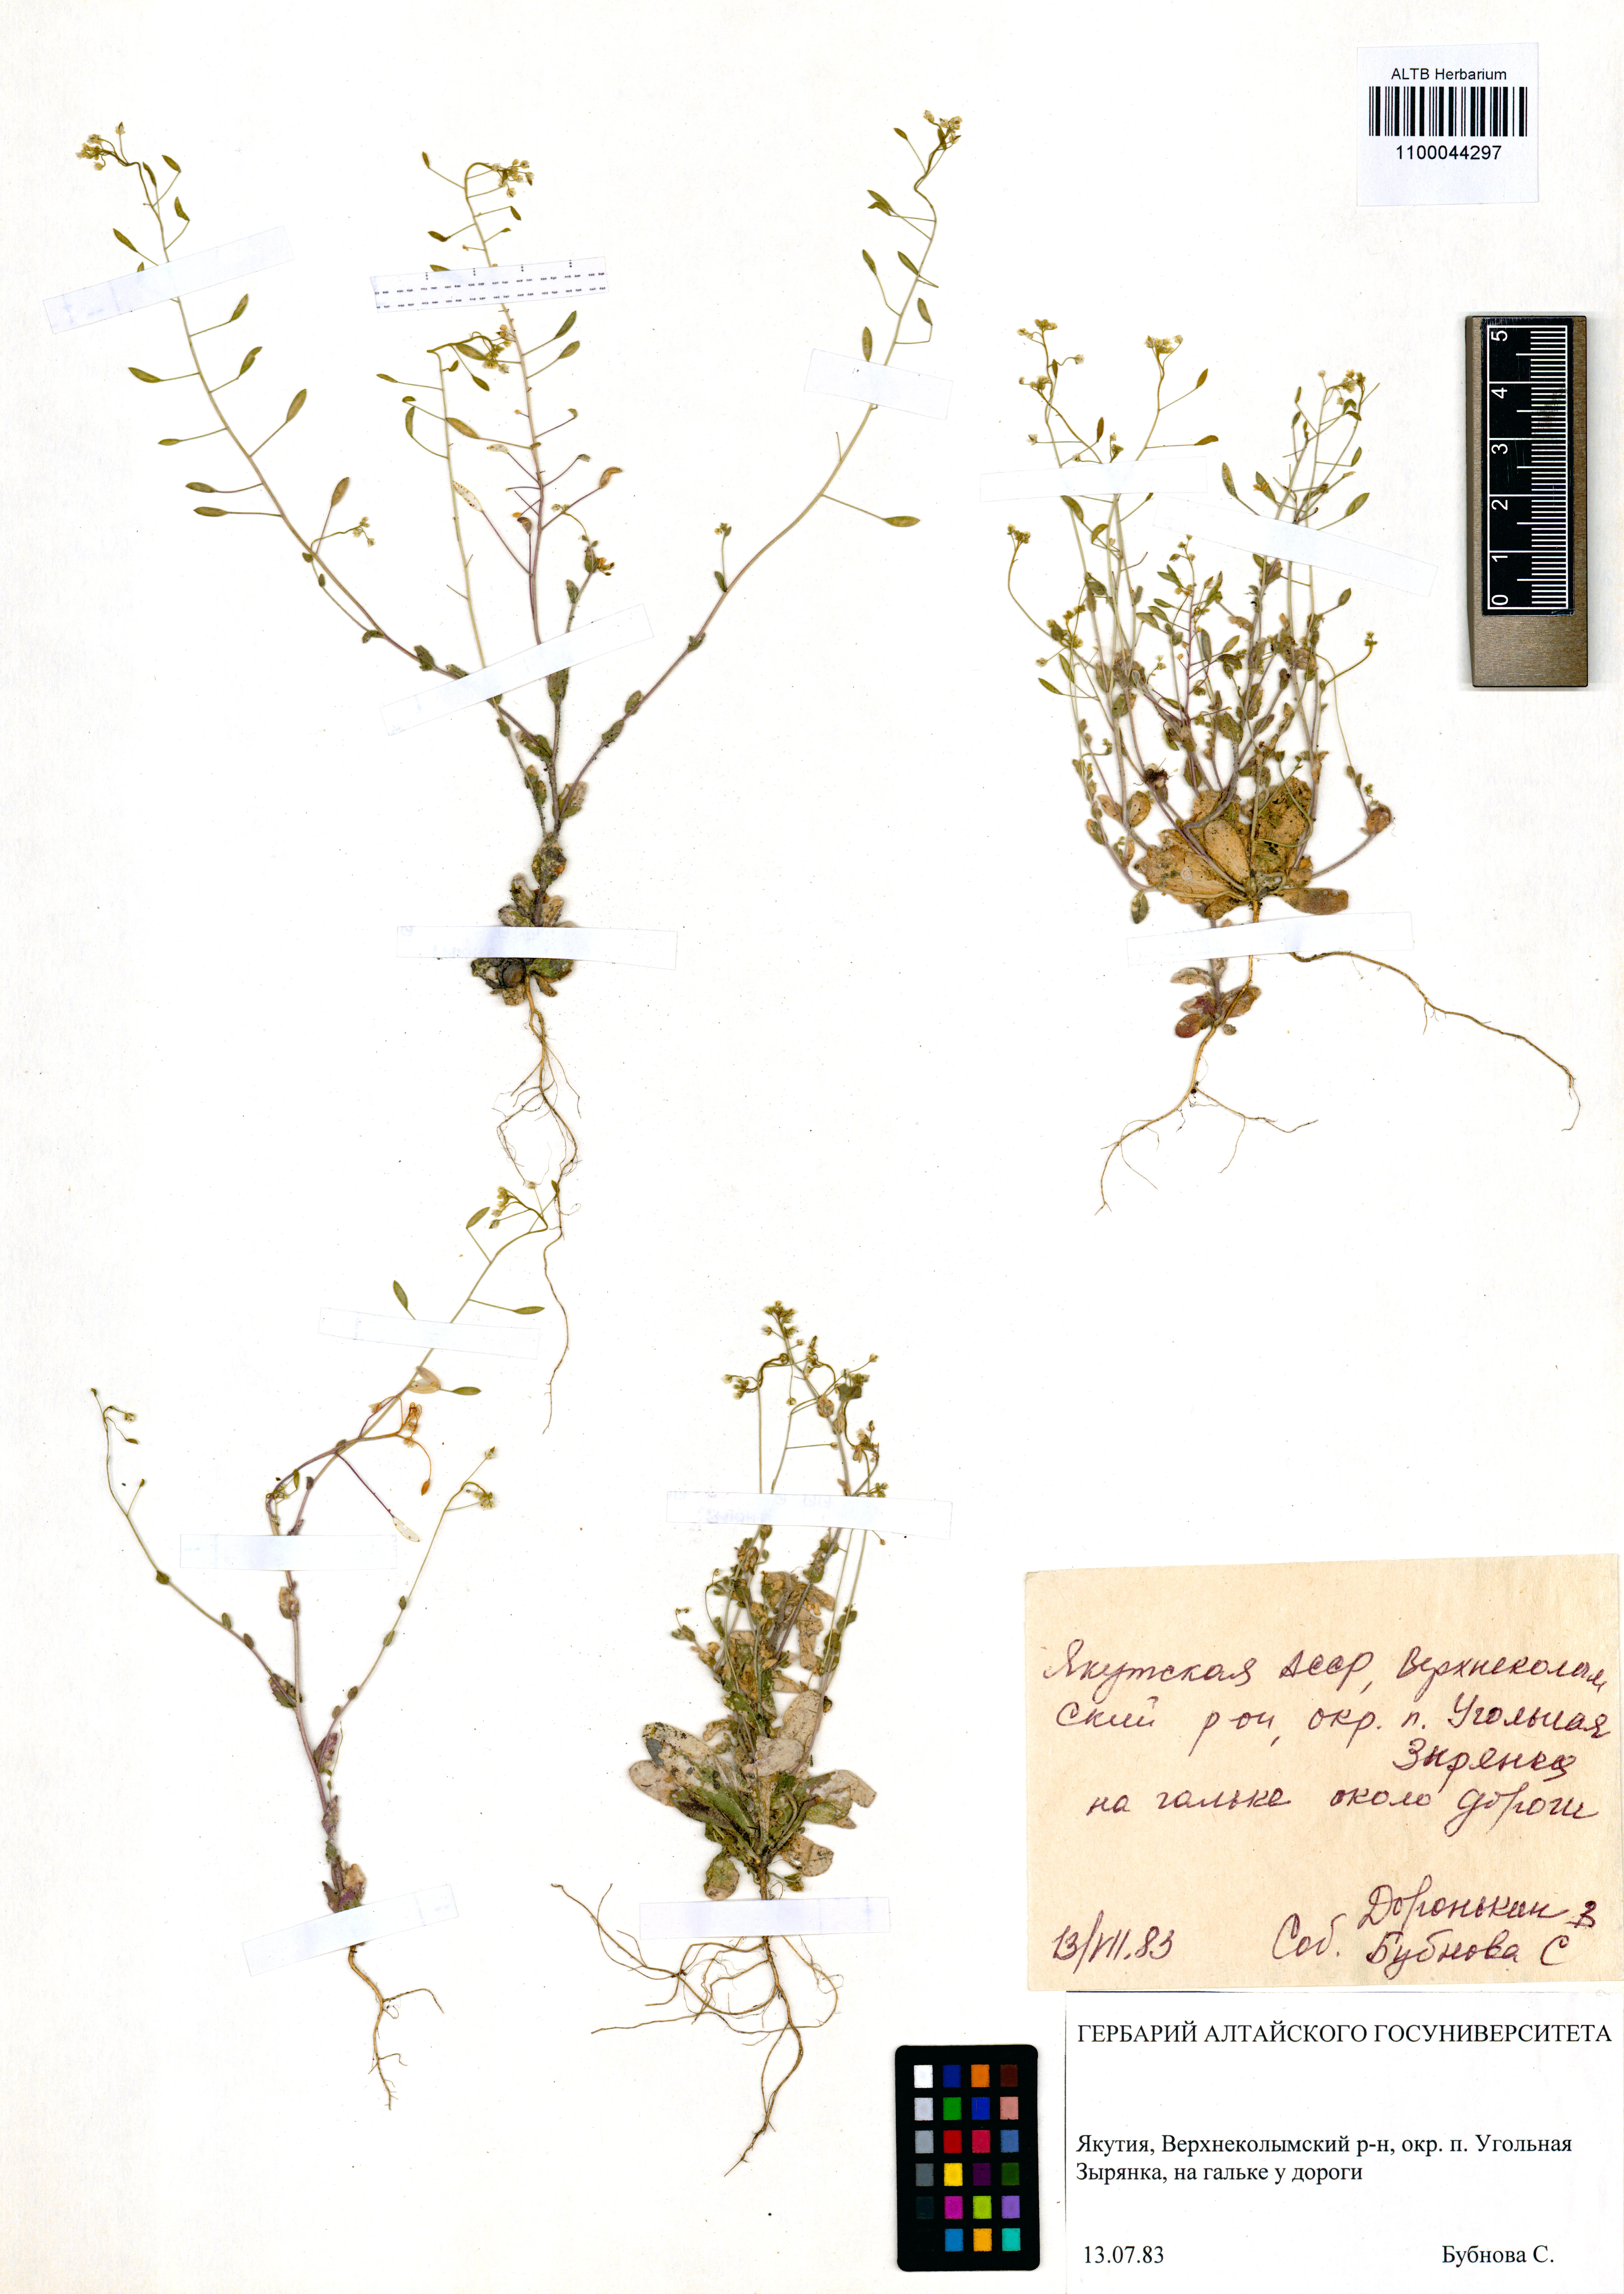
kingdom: Plantae
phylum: Tracheophyta
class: Magnoliopsida
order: Brassicales
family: Brassicaceae
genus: Draba
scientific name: Draba nemorosa
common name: Wood whitlow-grass
